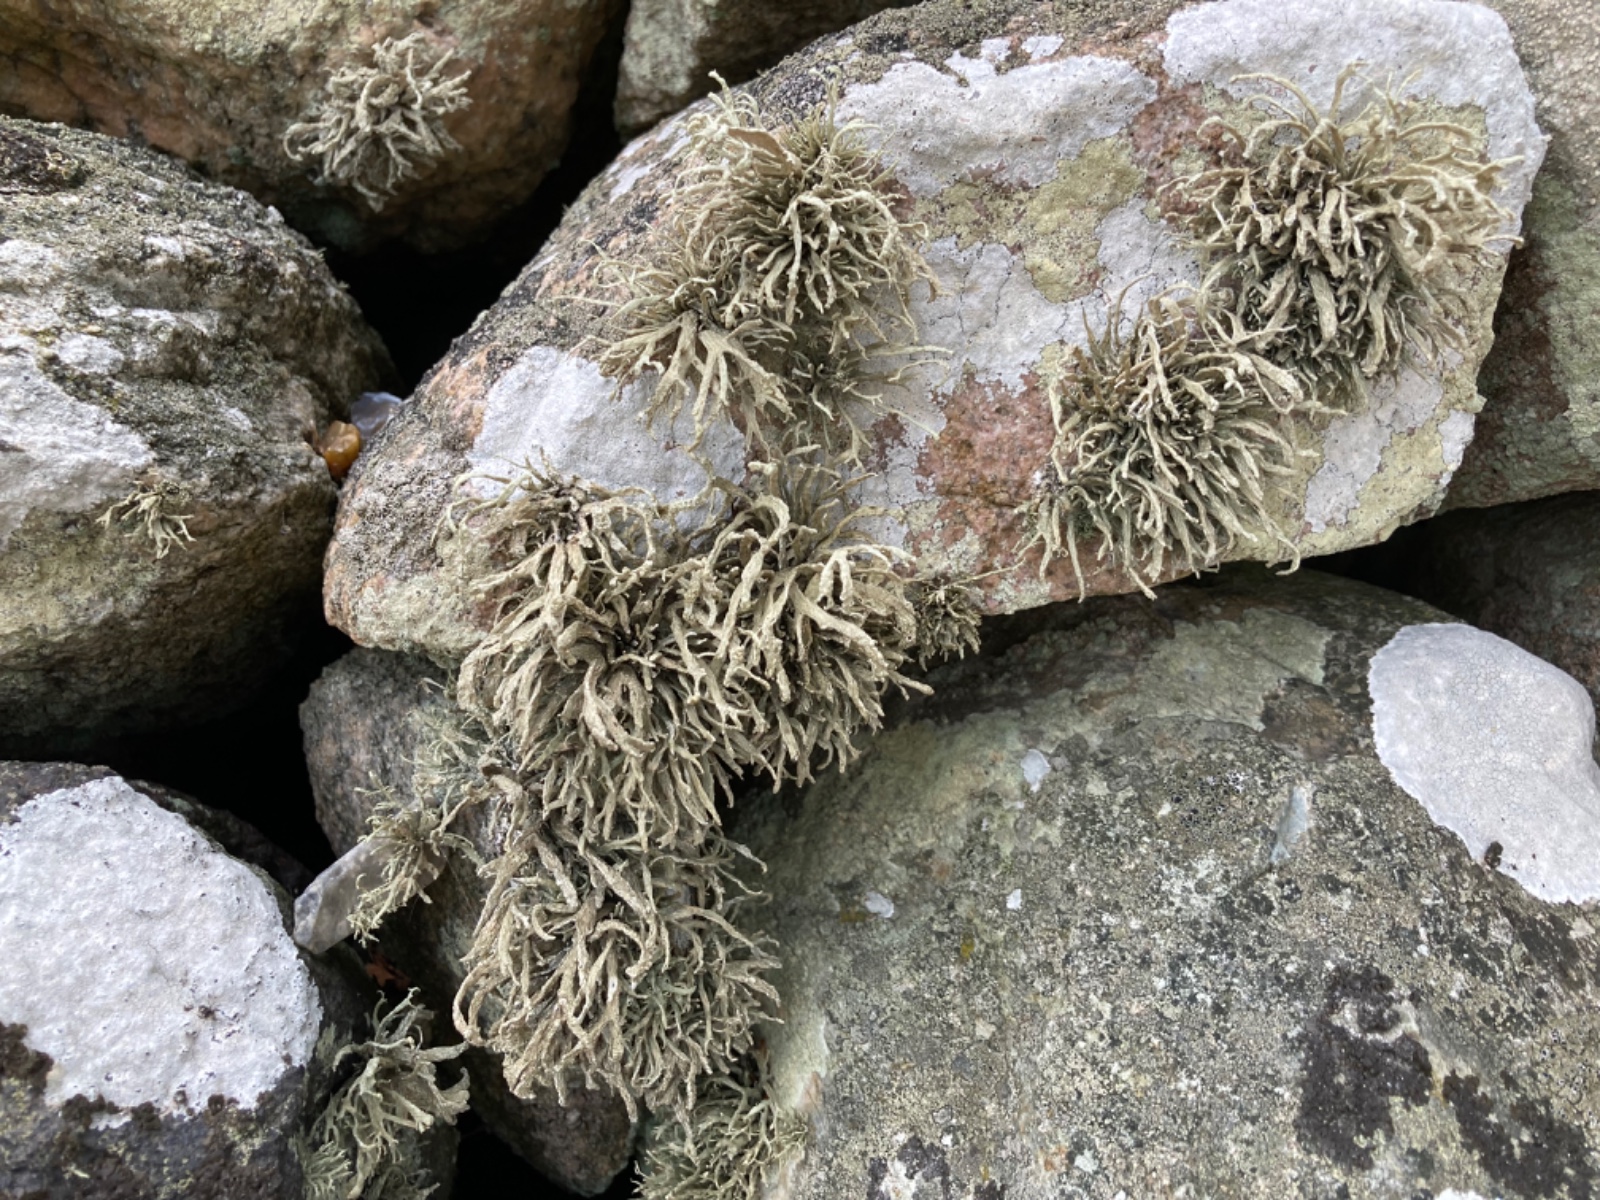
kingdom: Fungi
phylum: Ascomycota
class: Lecanoromycetes
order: Lecanorales
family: Ramalinaceae
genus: Ramalina
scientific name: Ramalina siliquosa
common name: klippe-grenlav
